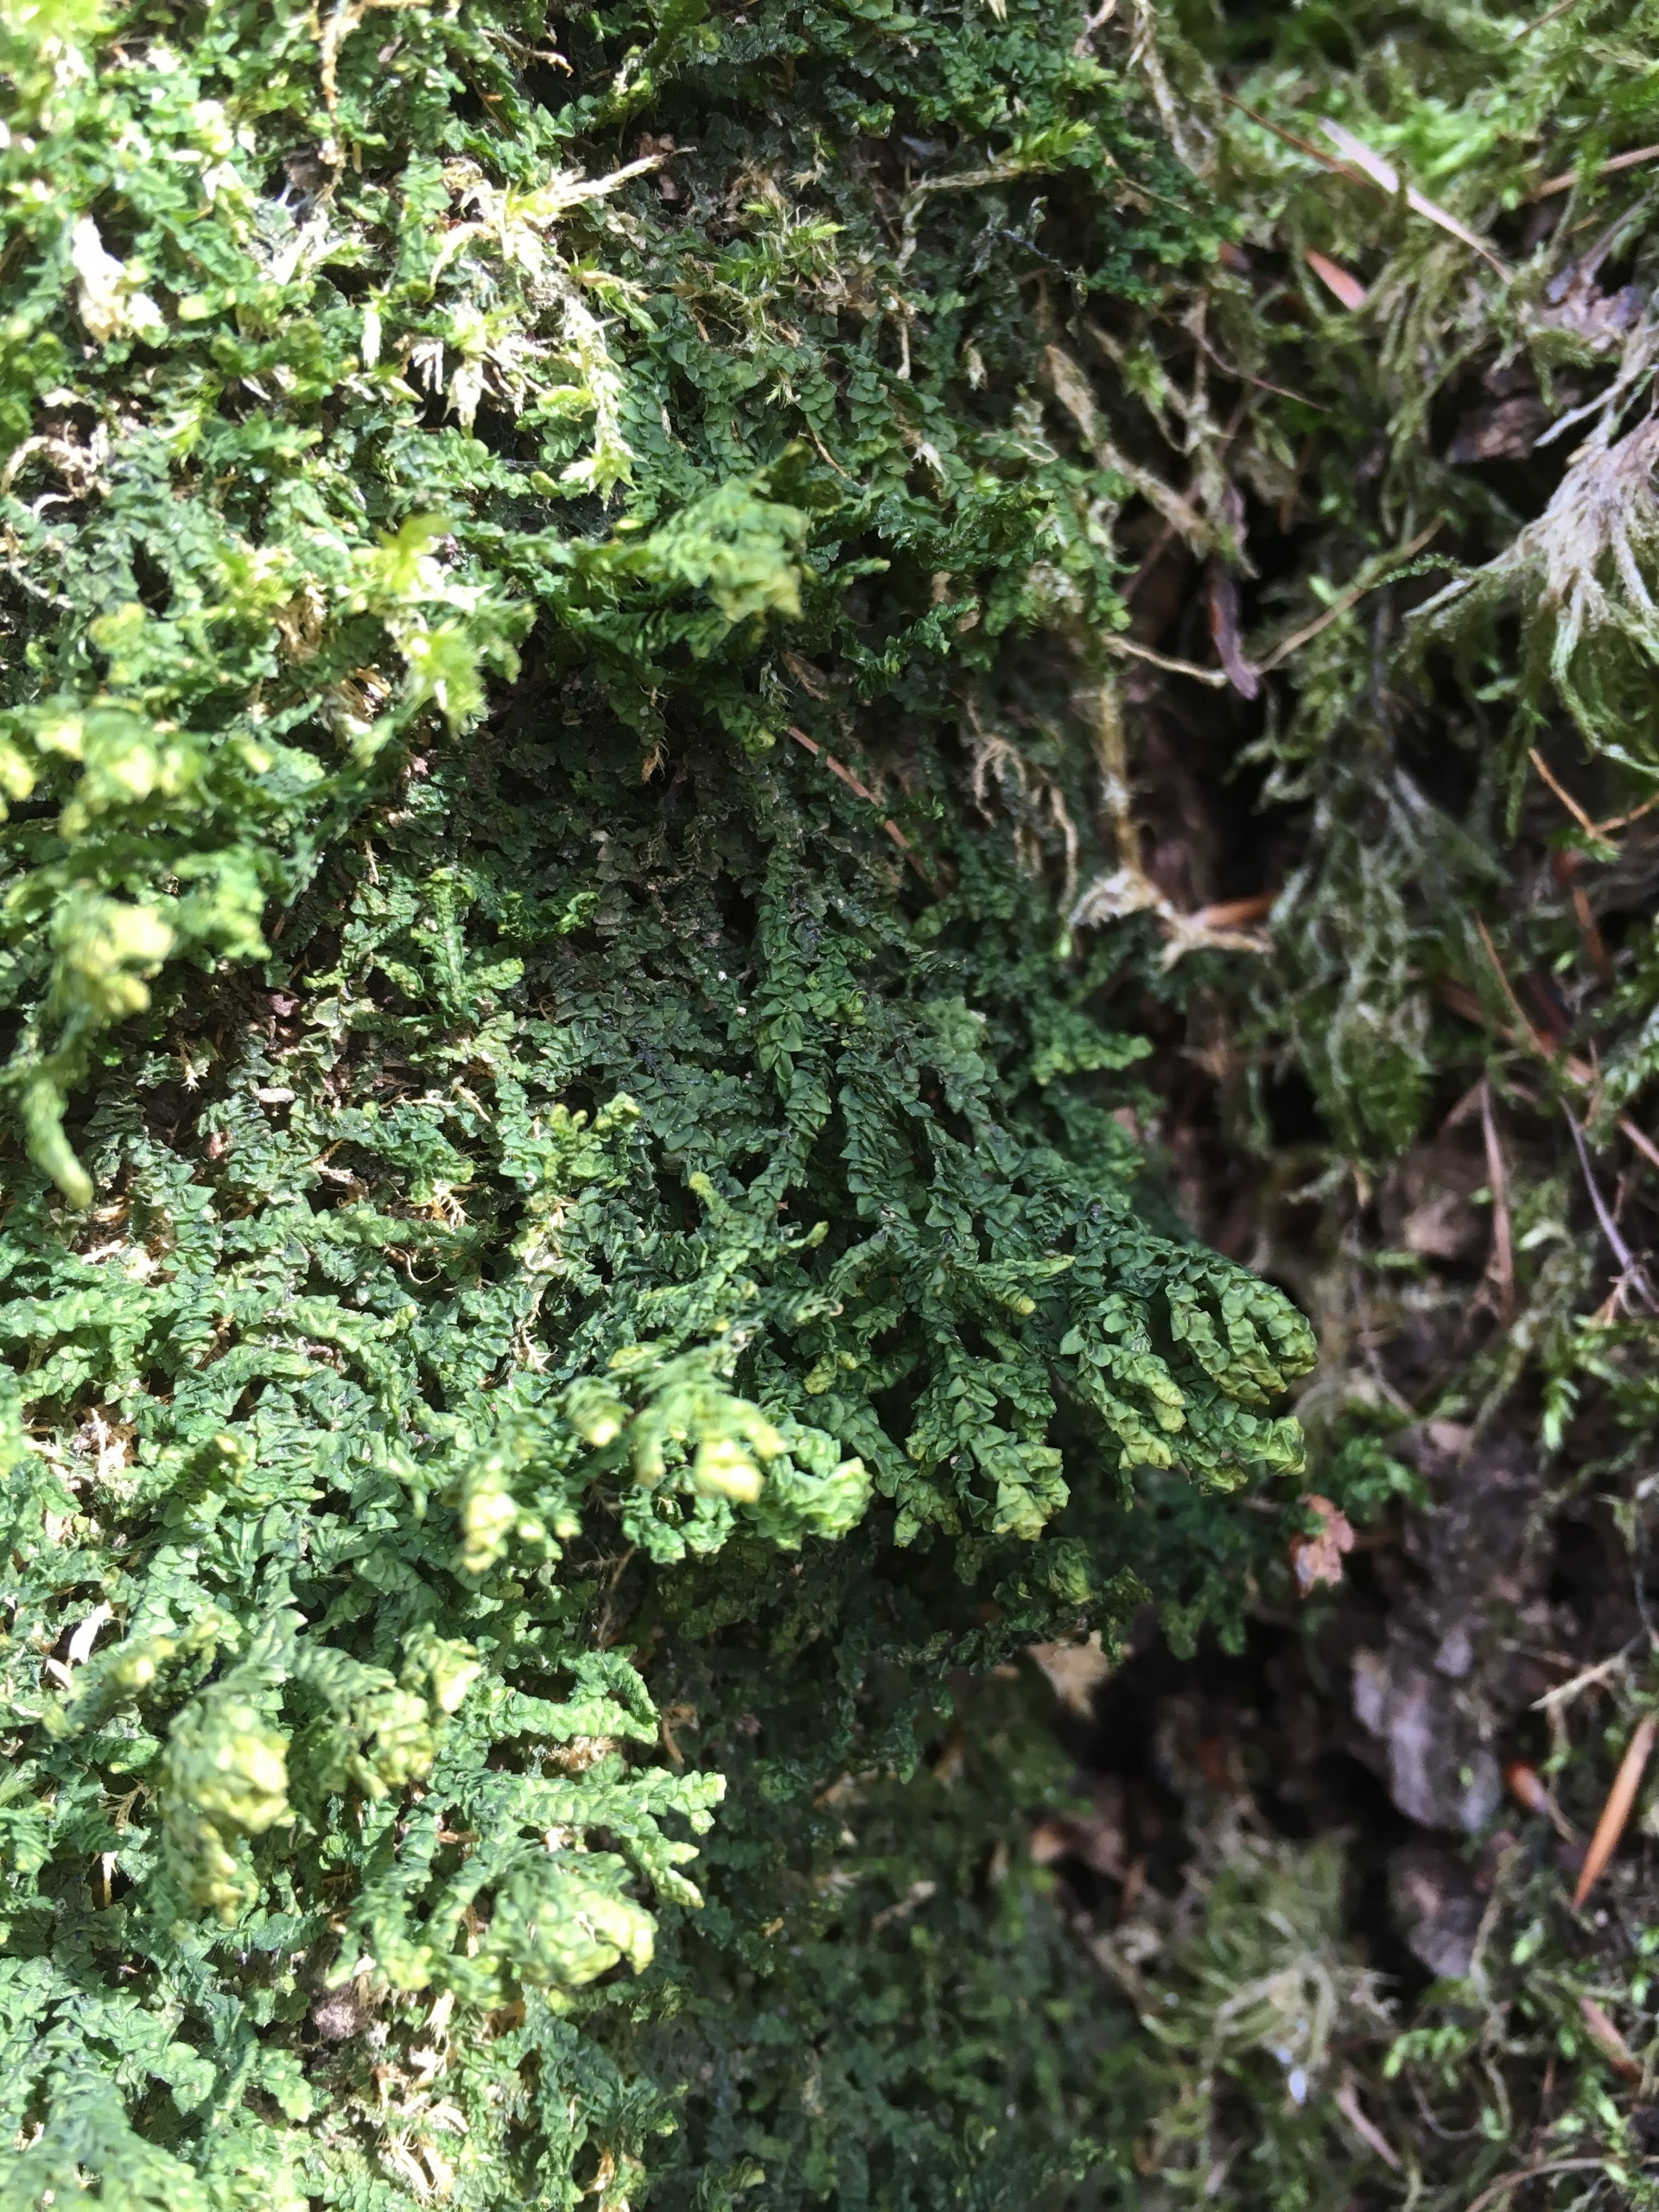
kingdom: Plantae
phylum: Marchantiophyta
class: Jungermanniopsida
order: Porellales
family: Porellaceae
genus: Porella
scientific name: Porella platyphylla
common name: Almindelig skælryg
